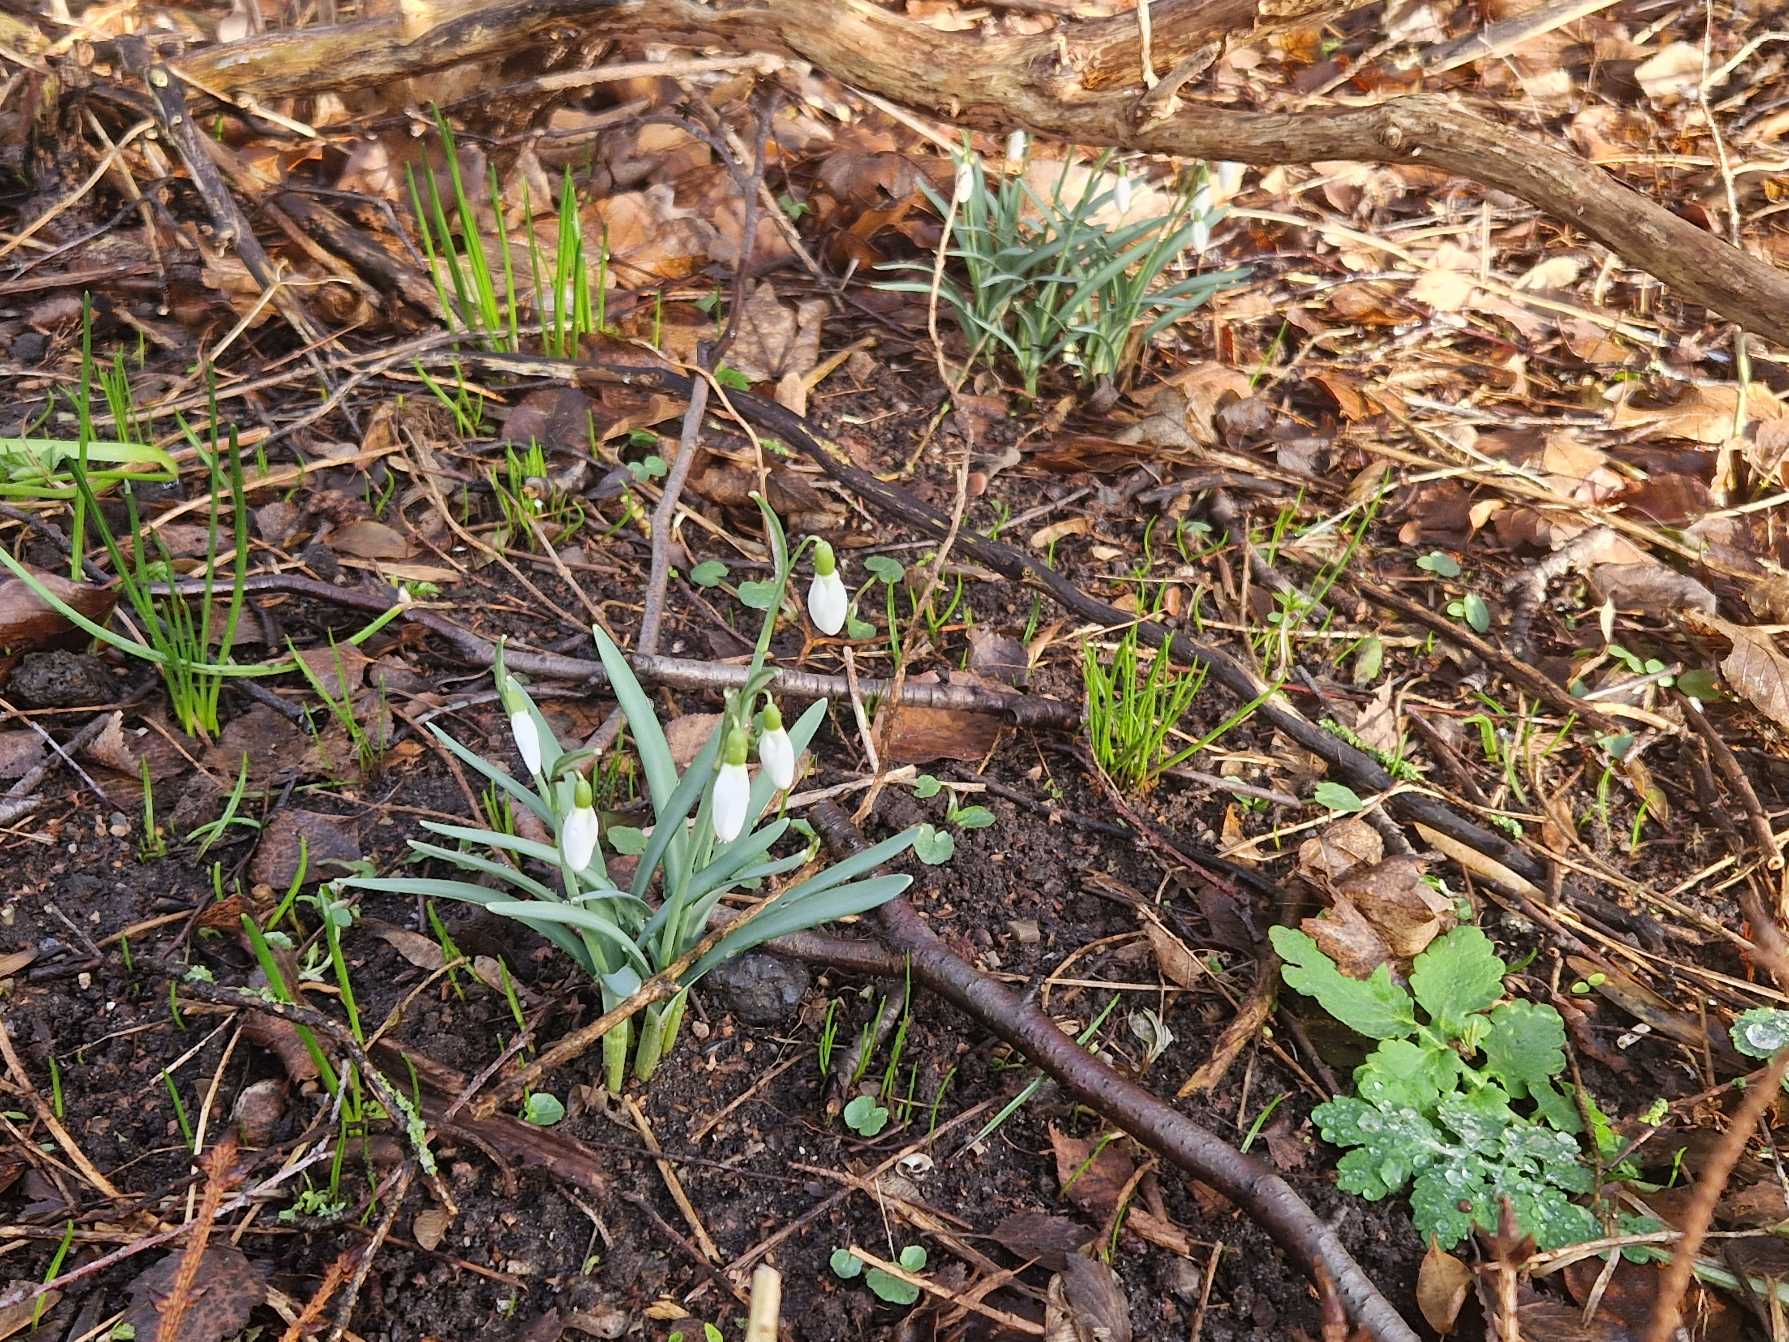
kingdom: Plantae
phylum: Tracheophyta
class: Liliopsida
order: Asparagales
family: Amaryllidaceae
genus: Galanthus
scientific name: Galanthus nivalis
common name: Vintergæk
